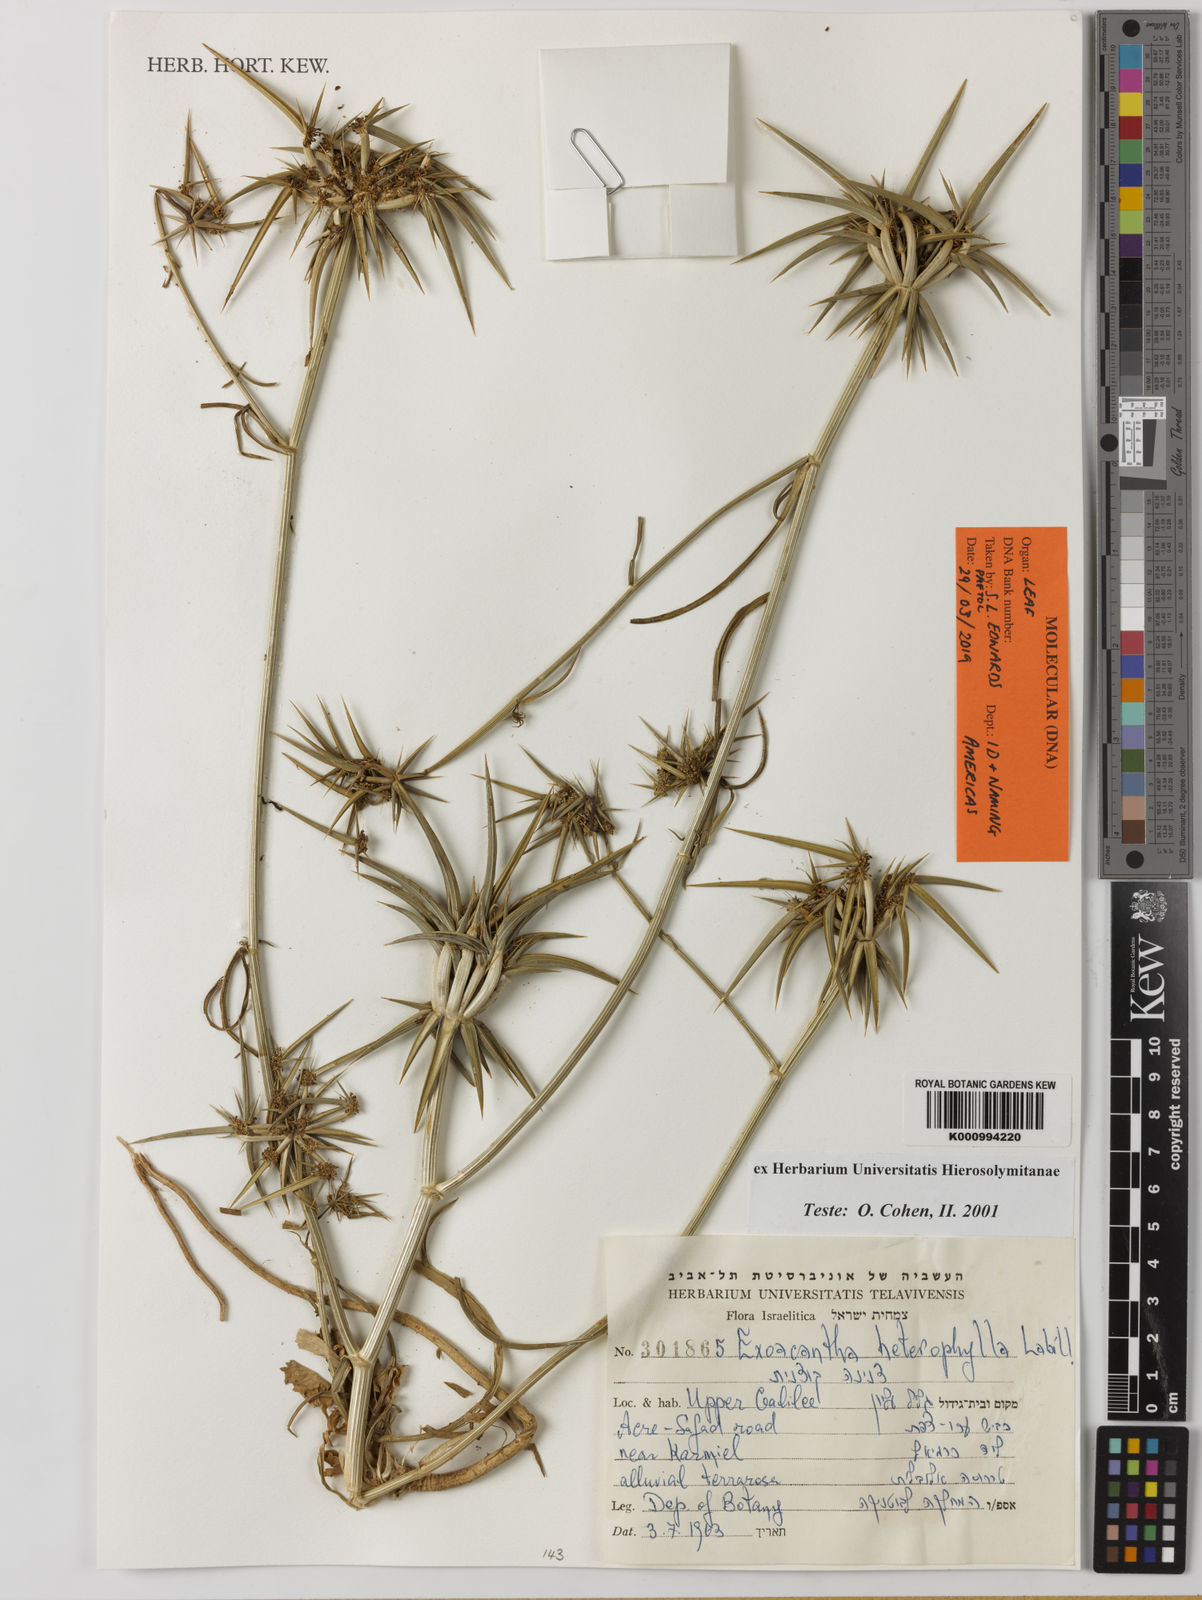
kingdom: Plantae
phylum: Tracheophyta
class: Magnoliopsida
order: Apiales
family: Apiaceae
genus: Exoacantha
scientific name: Exoacantha heterophylla
